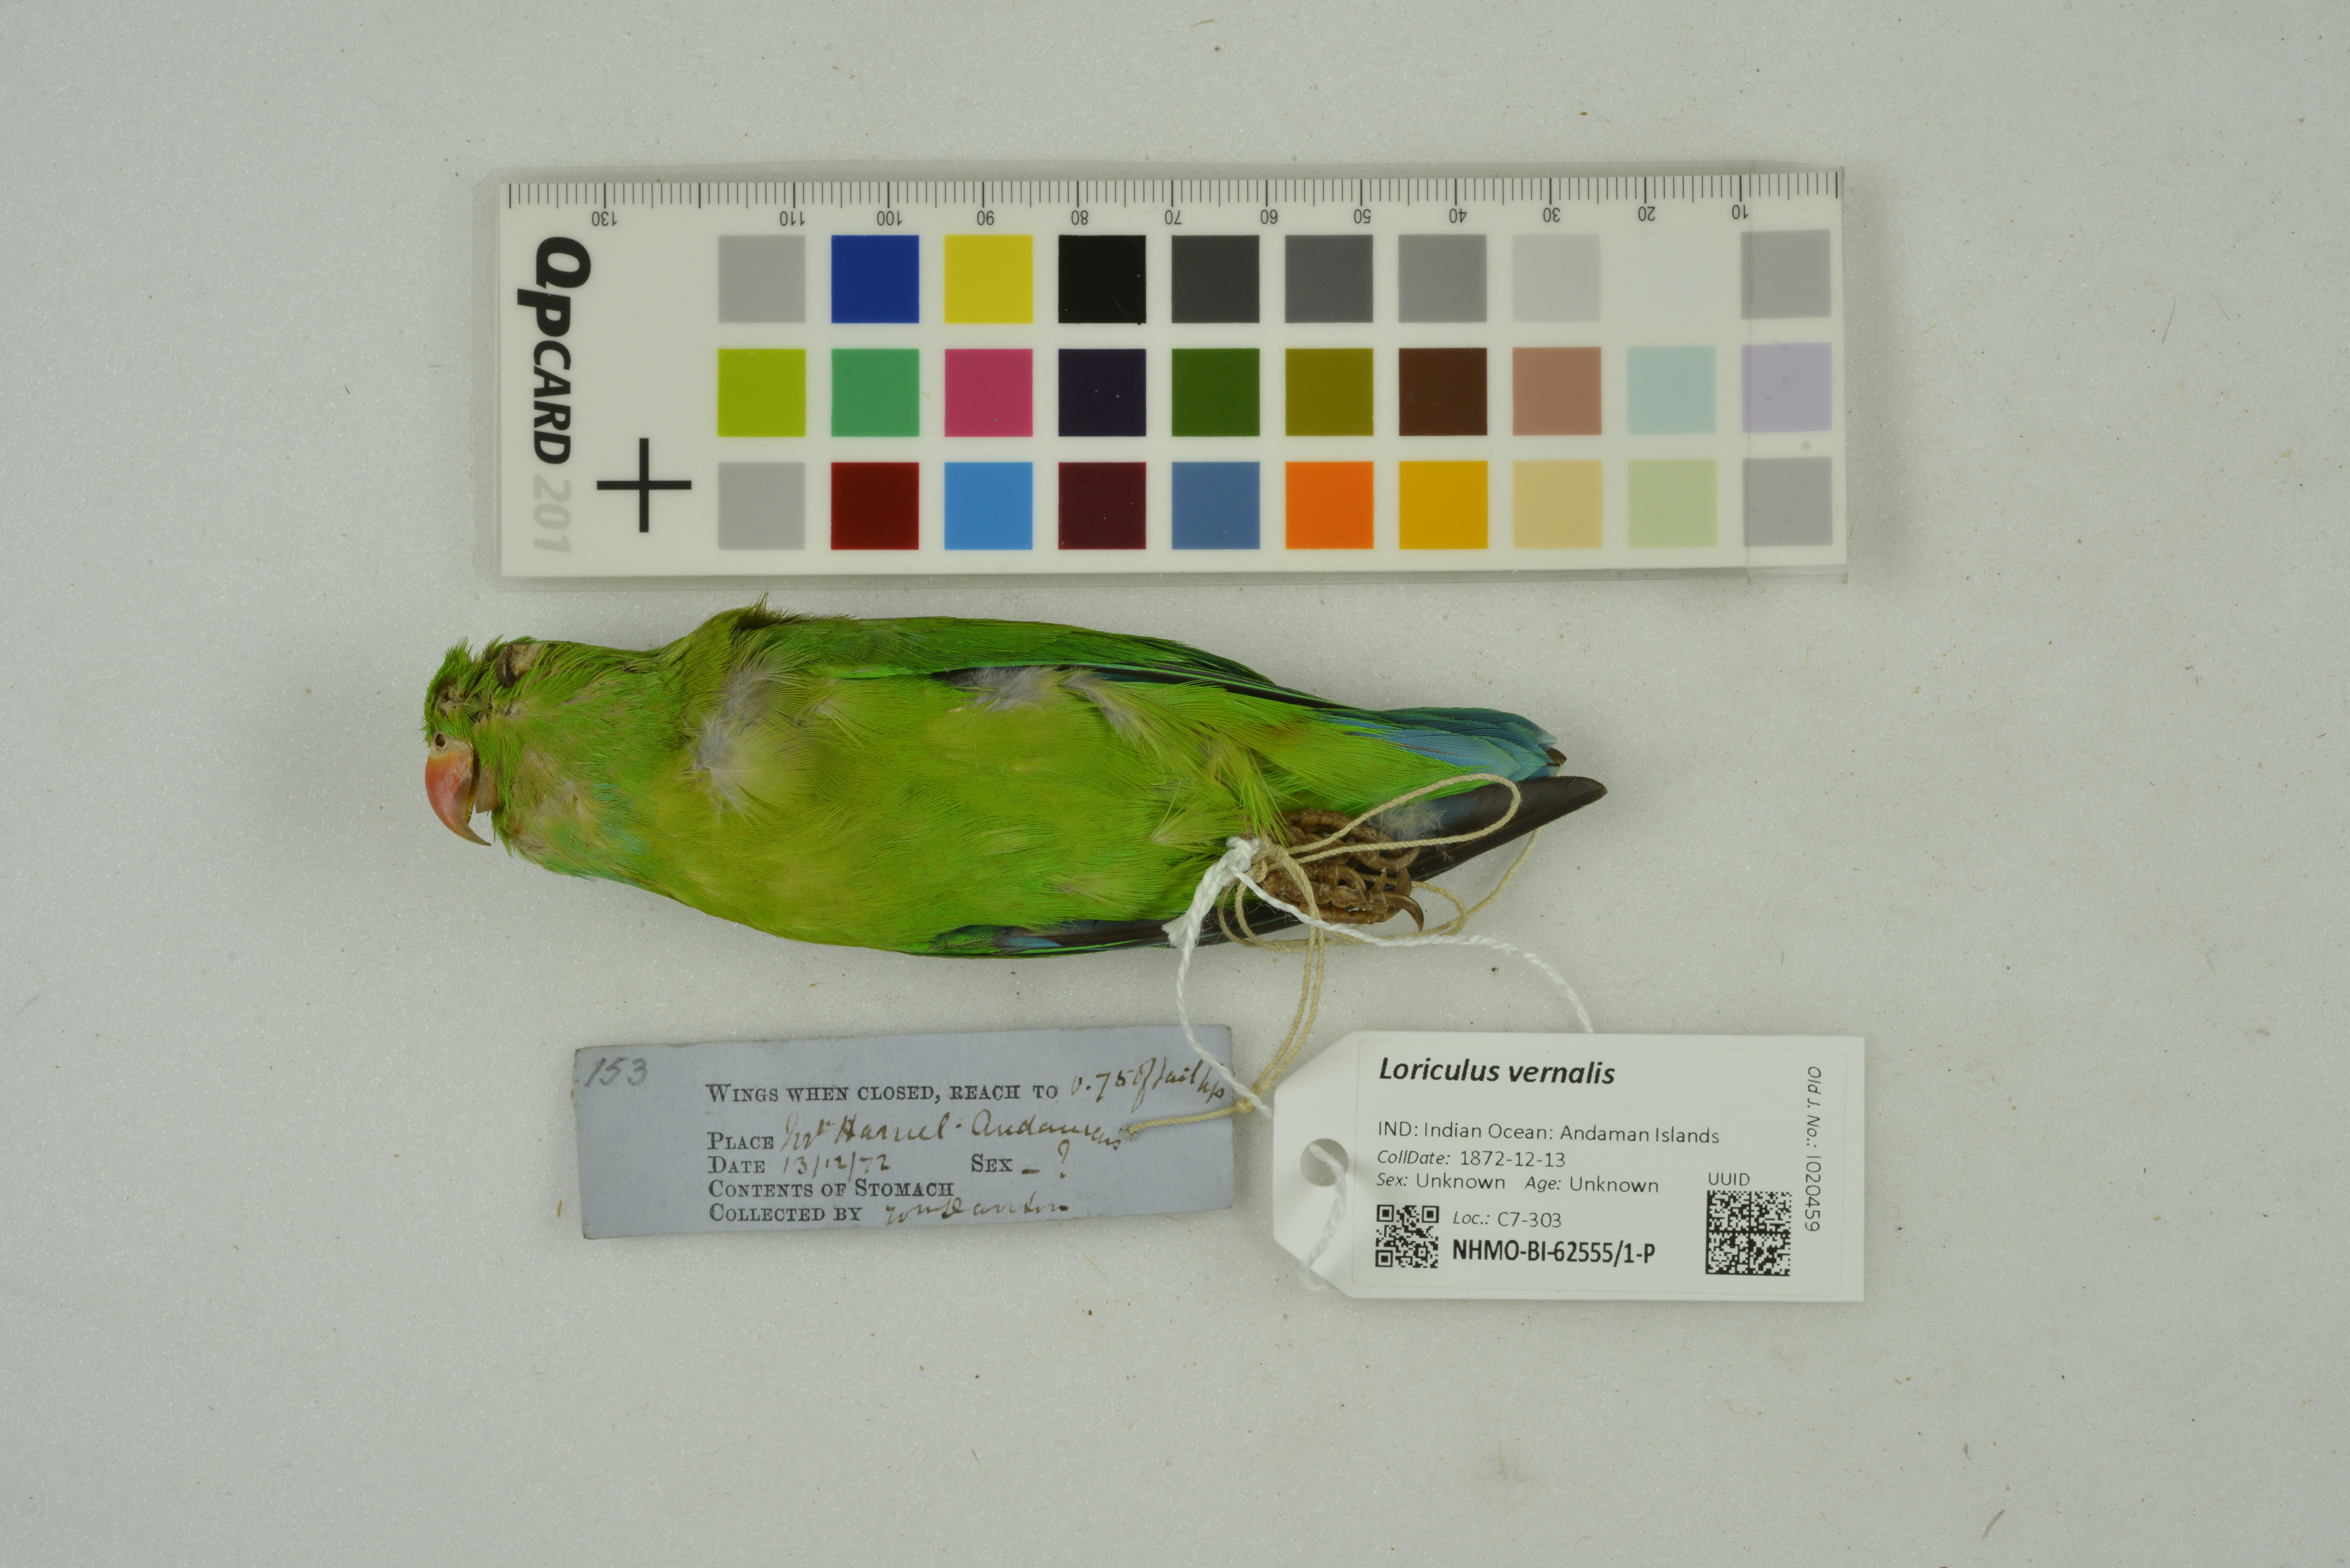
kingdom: Animalia
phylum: Chordata
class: Aves
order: Psittaciformes
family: Psittacidae
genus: Loriculus
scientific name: Loriculus vernalis
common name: Vernal hanging parrot
